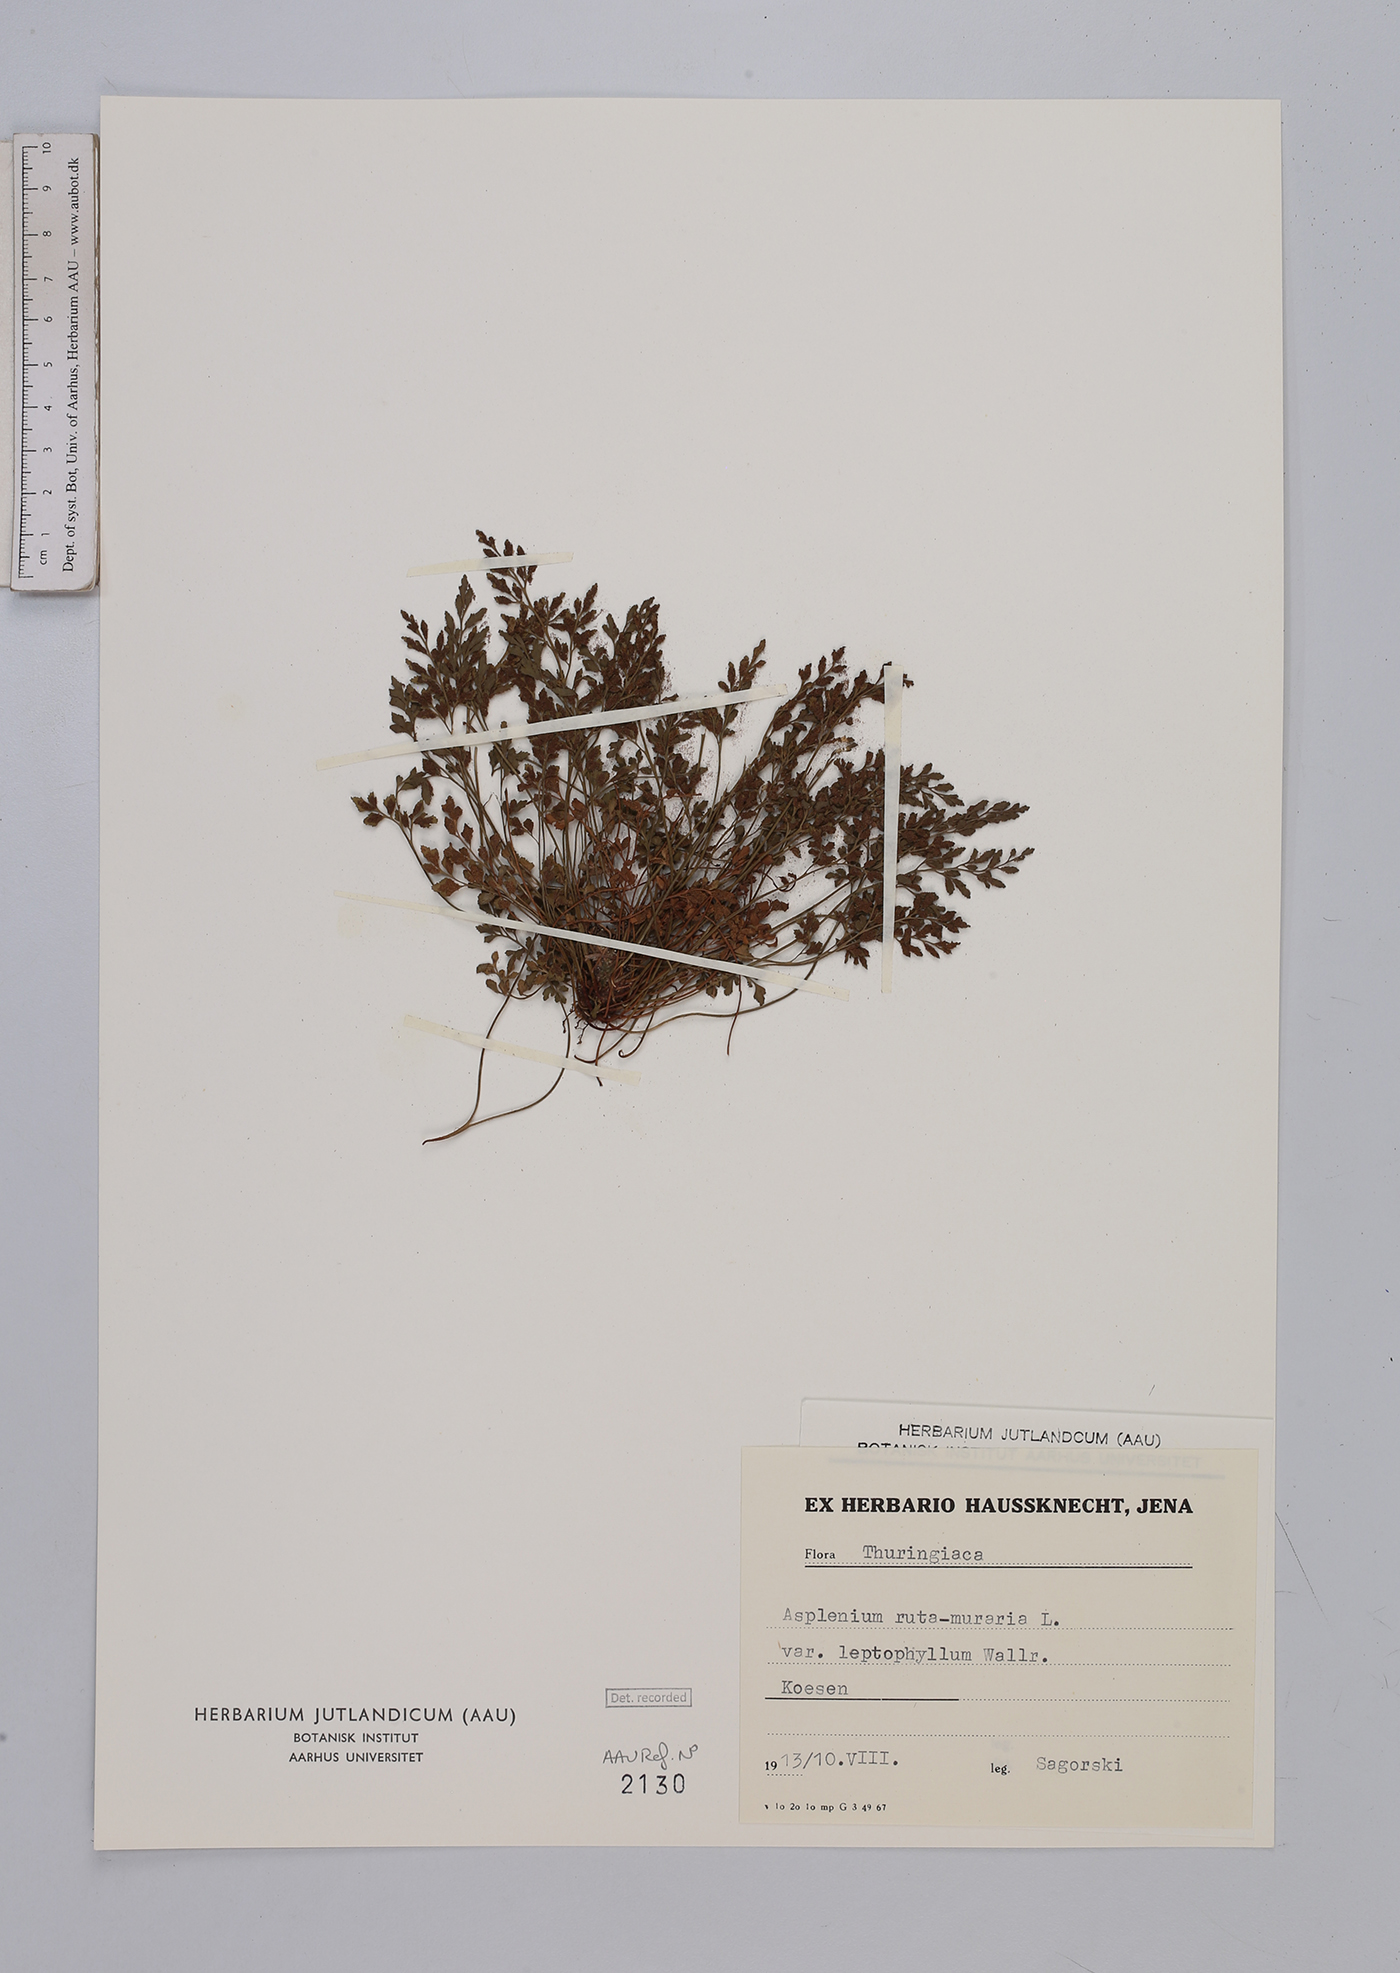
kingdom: Plantae
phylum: Tracheophyta
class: Polypodiopsida
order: Polypodiales
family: Aspleniaceae
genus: Asplenium
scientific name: Asplenium ruta-muraria
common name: Wall-rue
